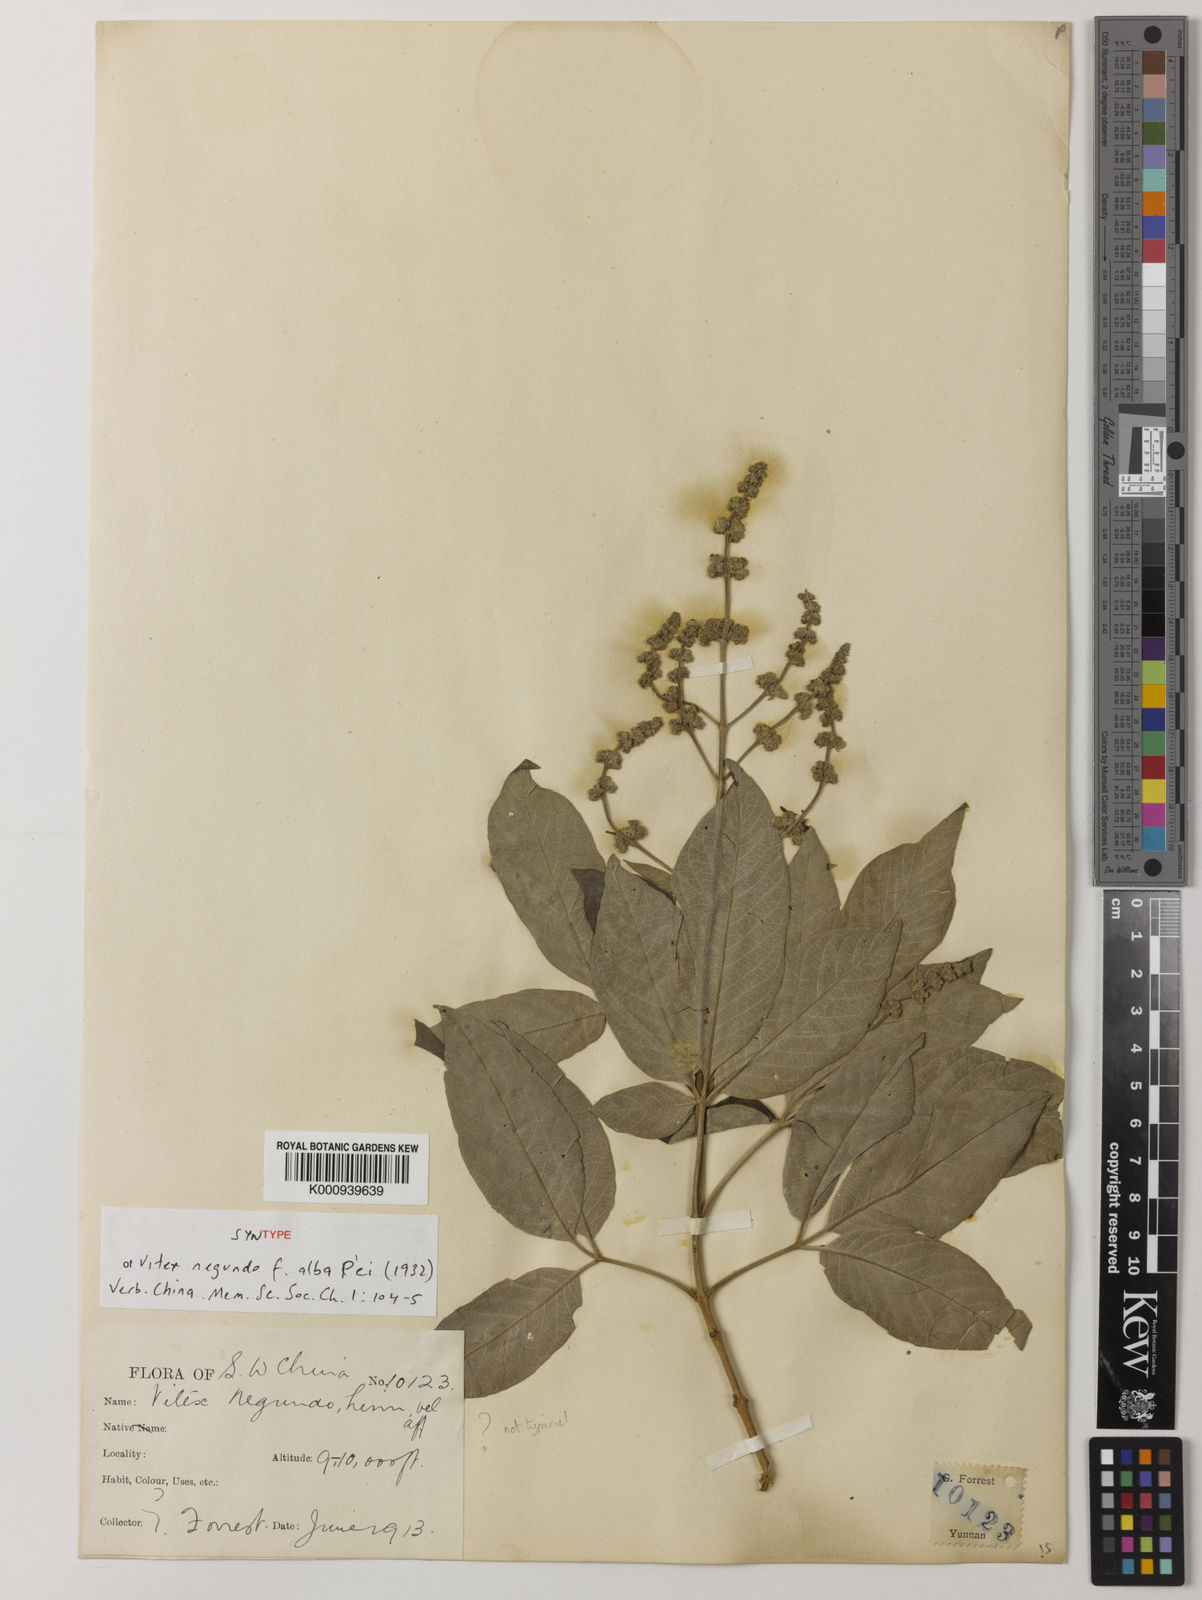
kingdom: Plantae
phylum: Tracheophyta
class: Magnoliopsida
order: Lamiales
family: Lamiaceae
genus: Vitex
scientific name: Vitex negundo
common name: Chinese chastetree
